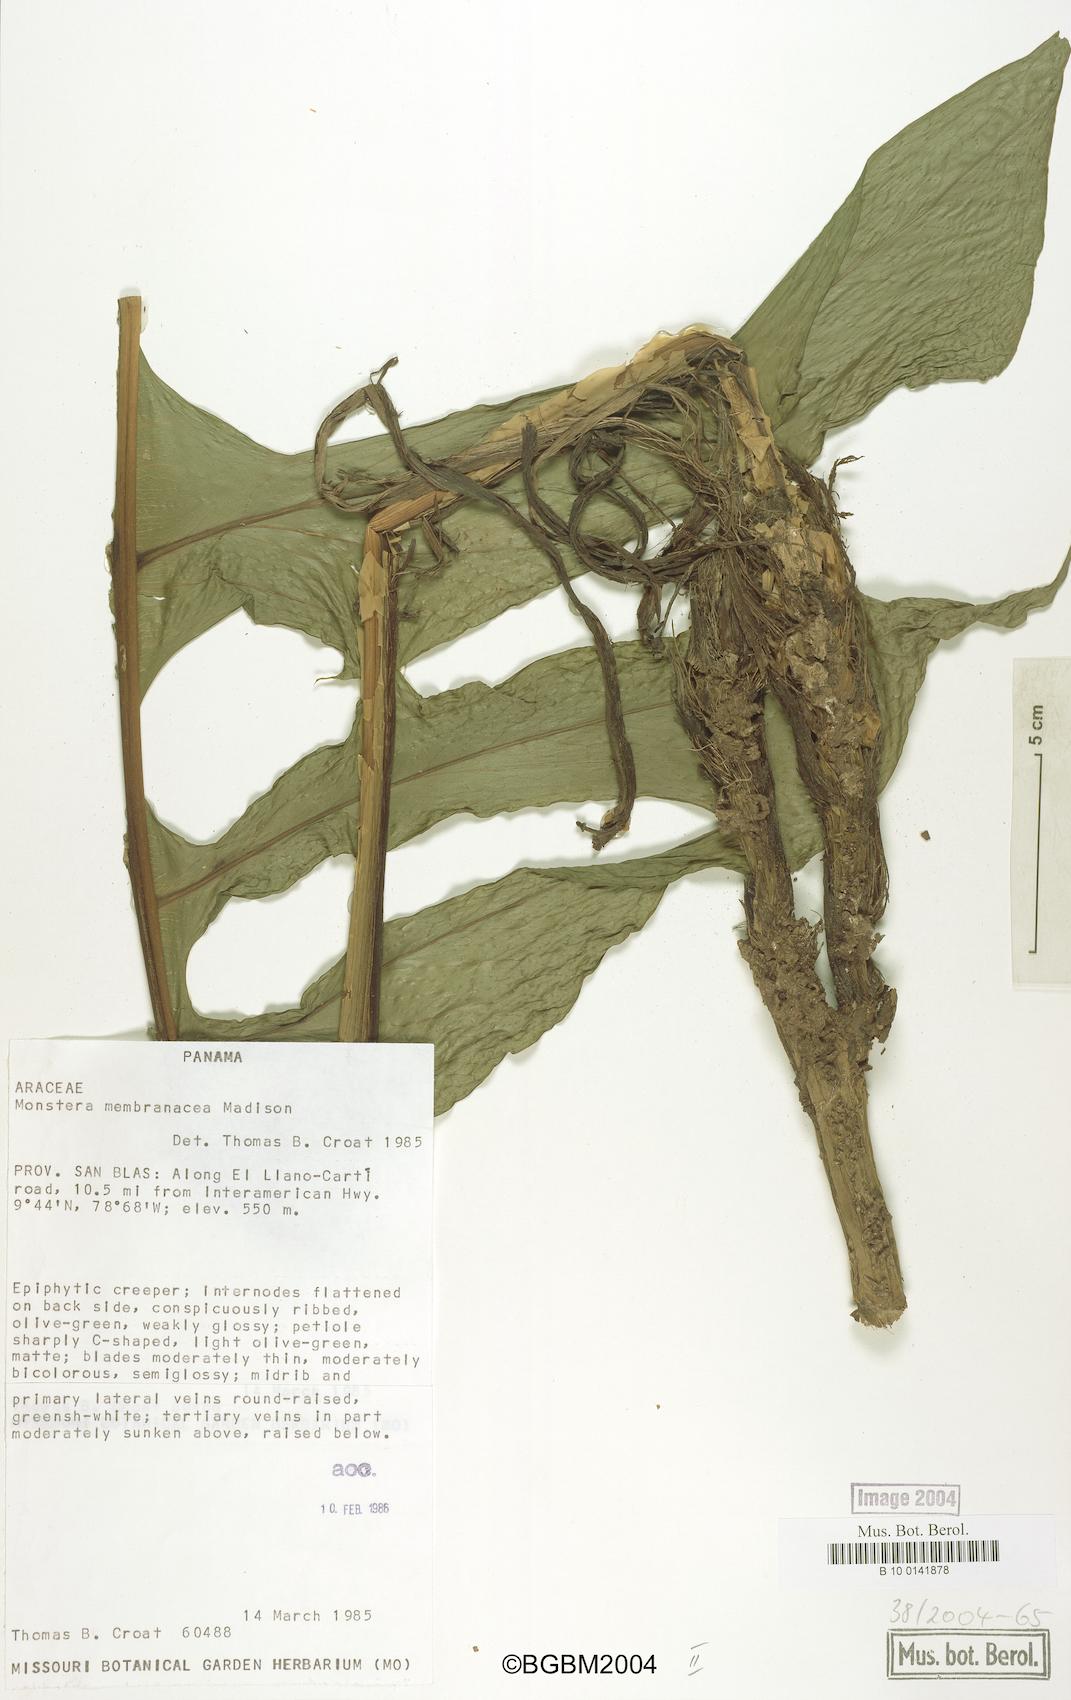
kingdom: Plantae
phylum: Tracheophyta
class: Liliopsida
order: Alismatales
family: Araceae
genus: Monstera
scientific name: Monstera membranacea
